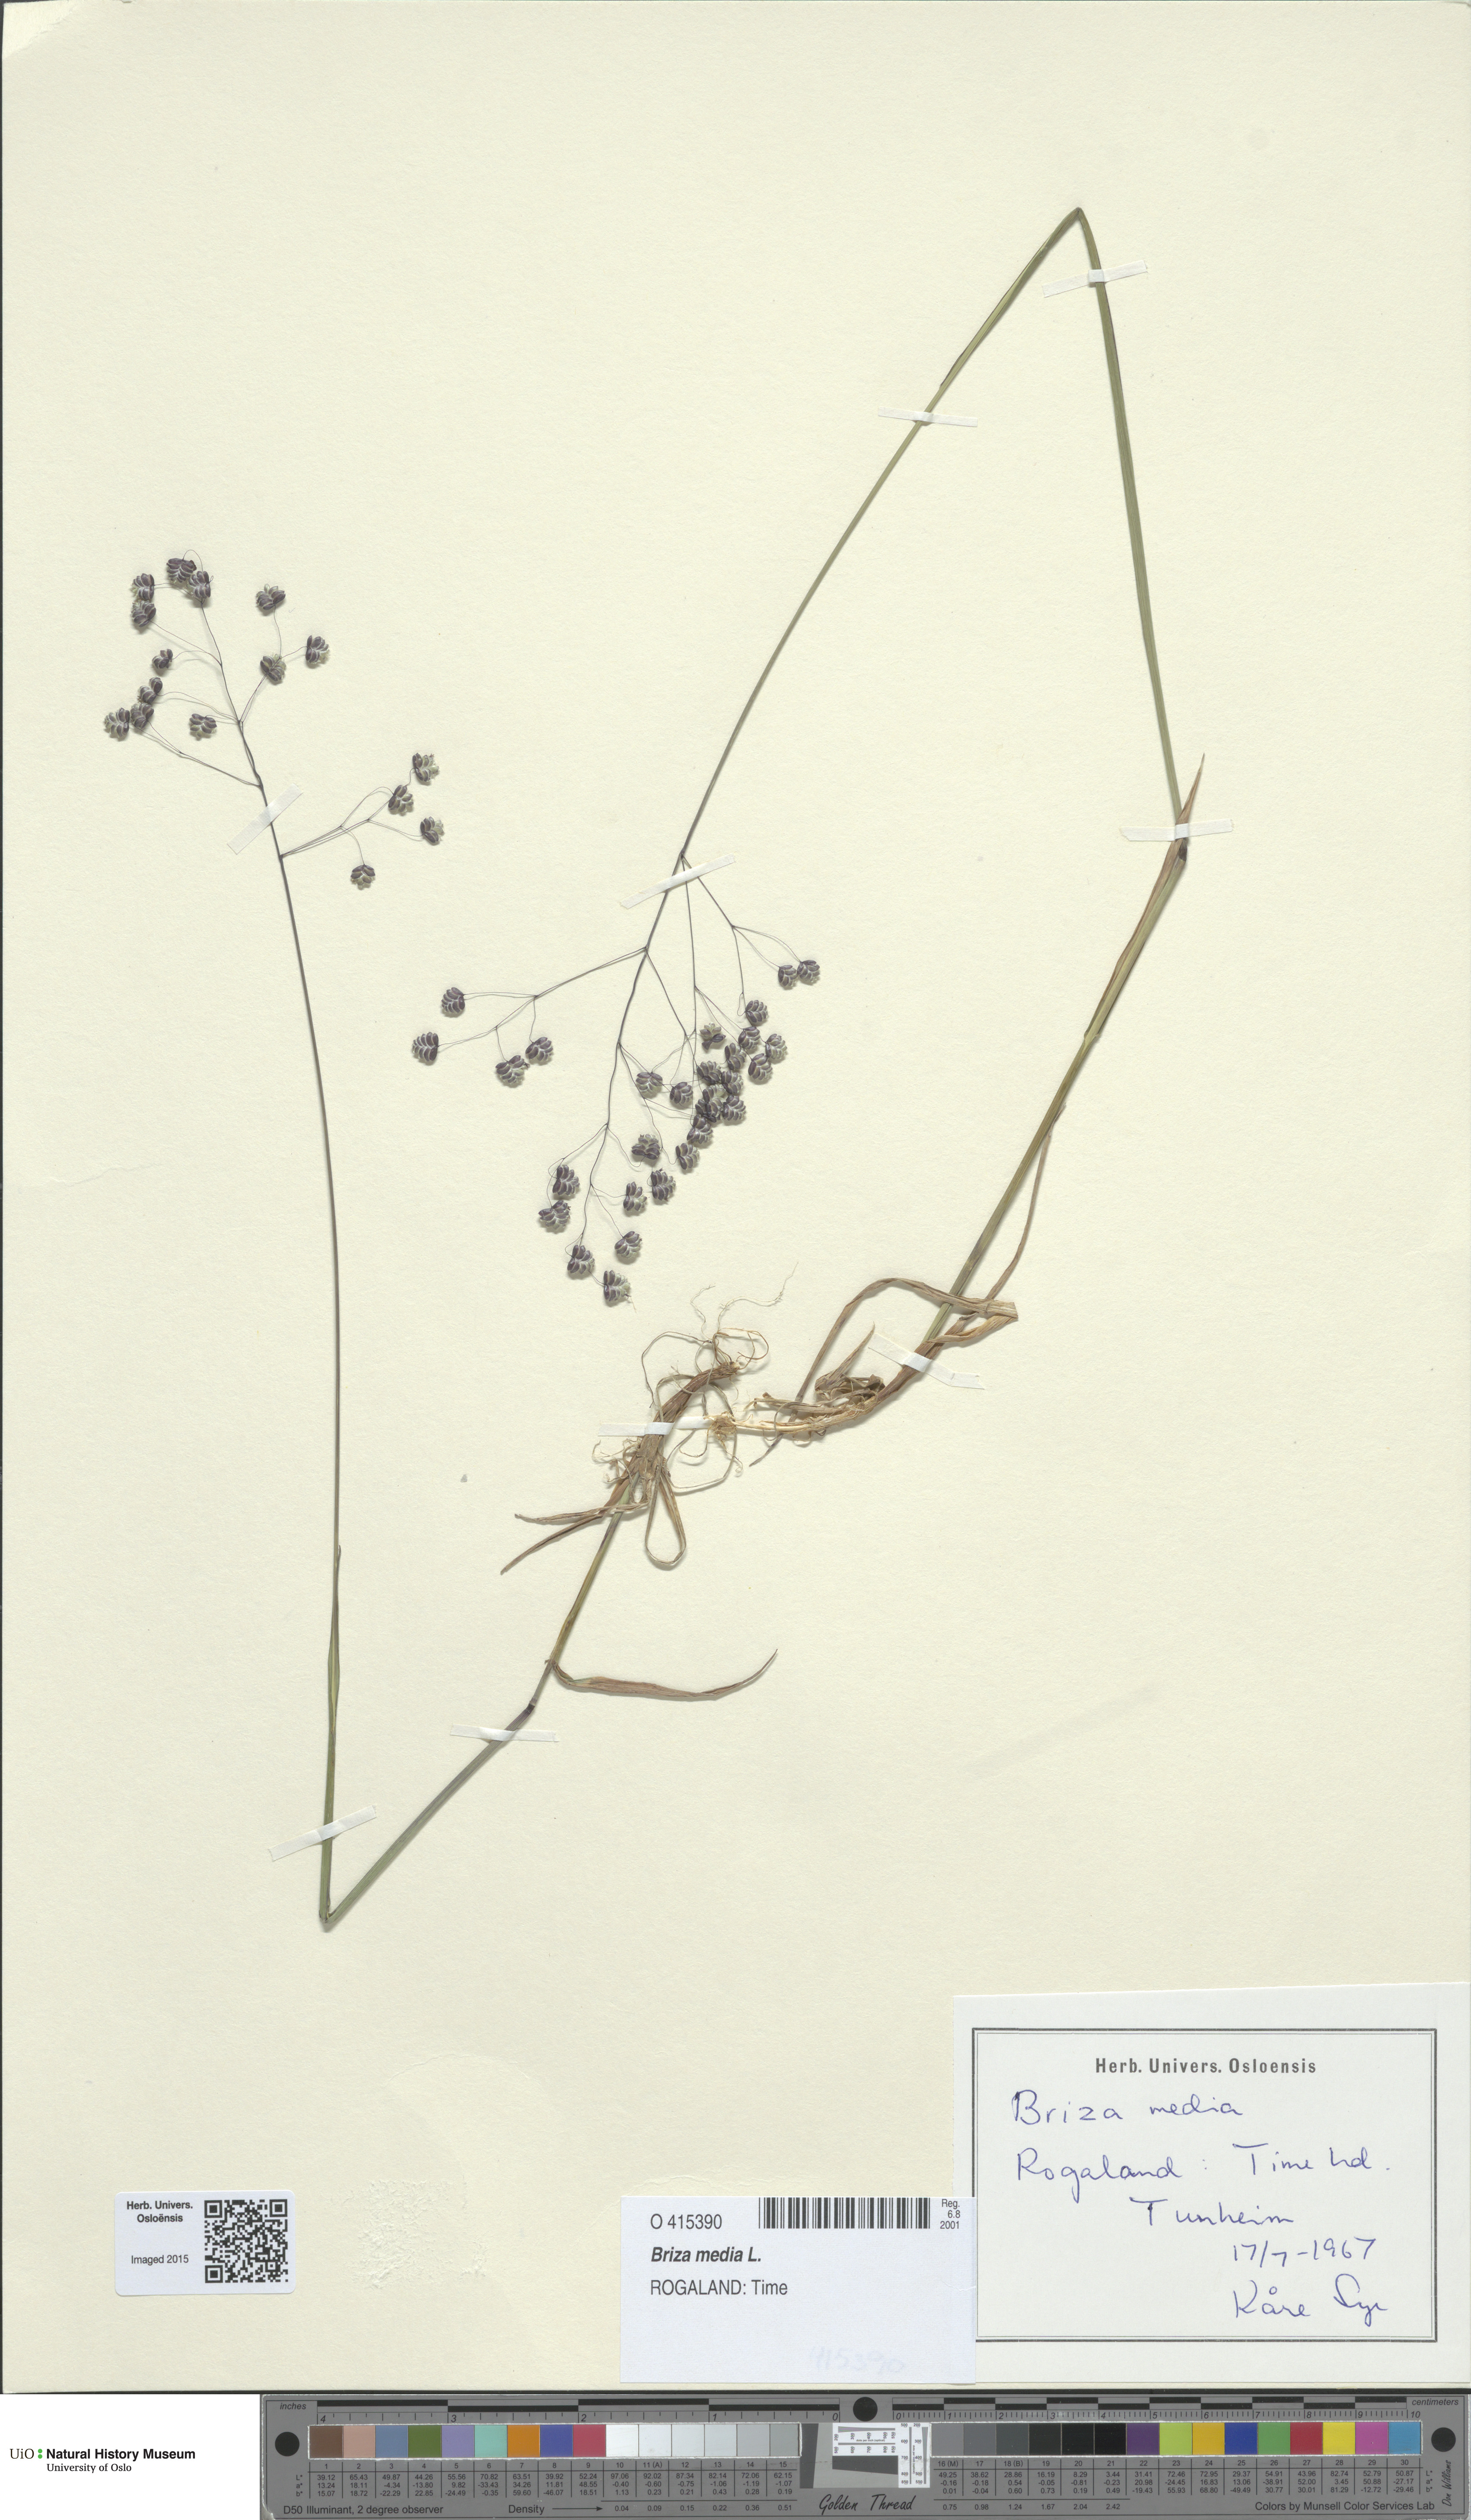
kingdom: Plantae
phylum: Tracheophyta
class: Liliopsida
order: Poales
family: Poaceae
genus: Briza
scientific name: Briza media
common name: Quaking grass
